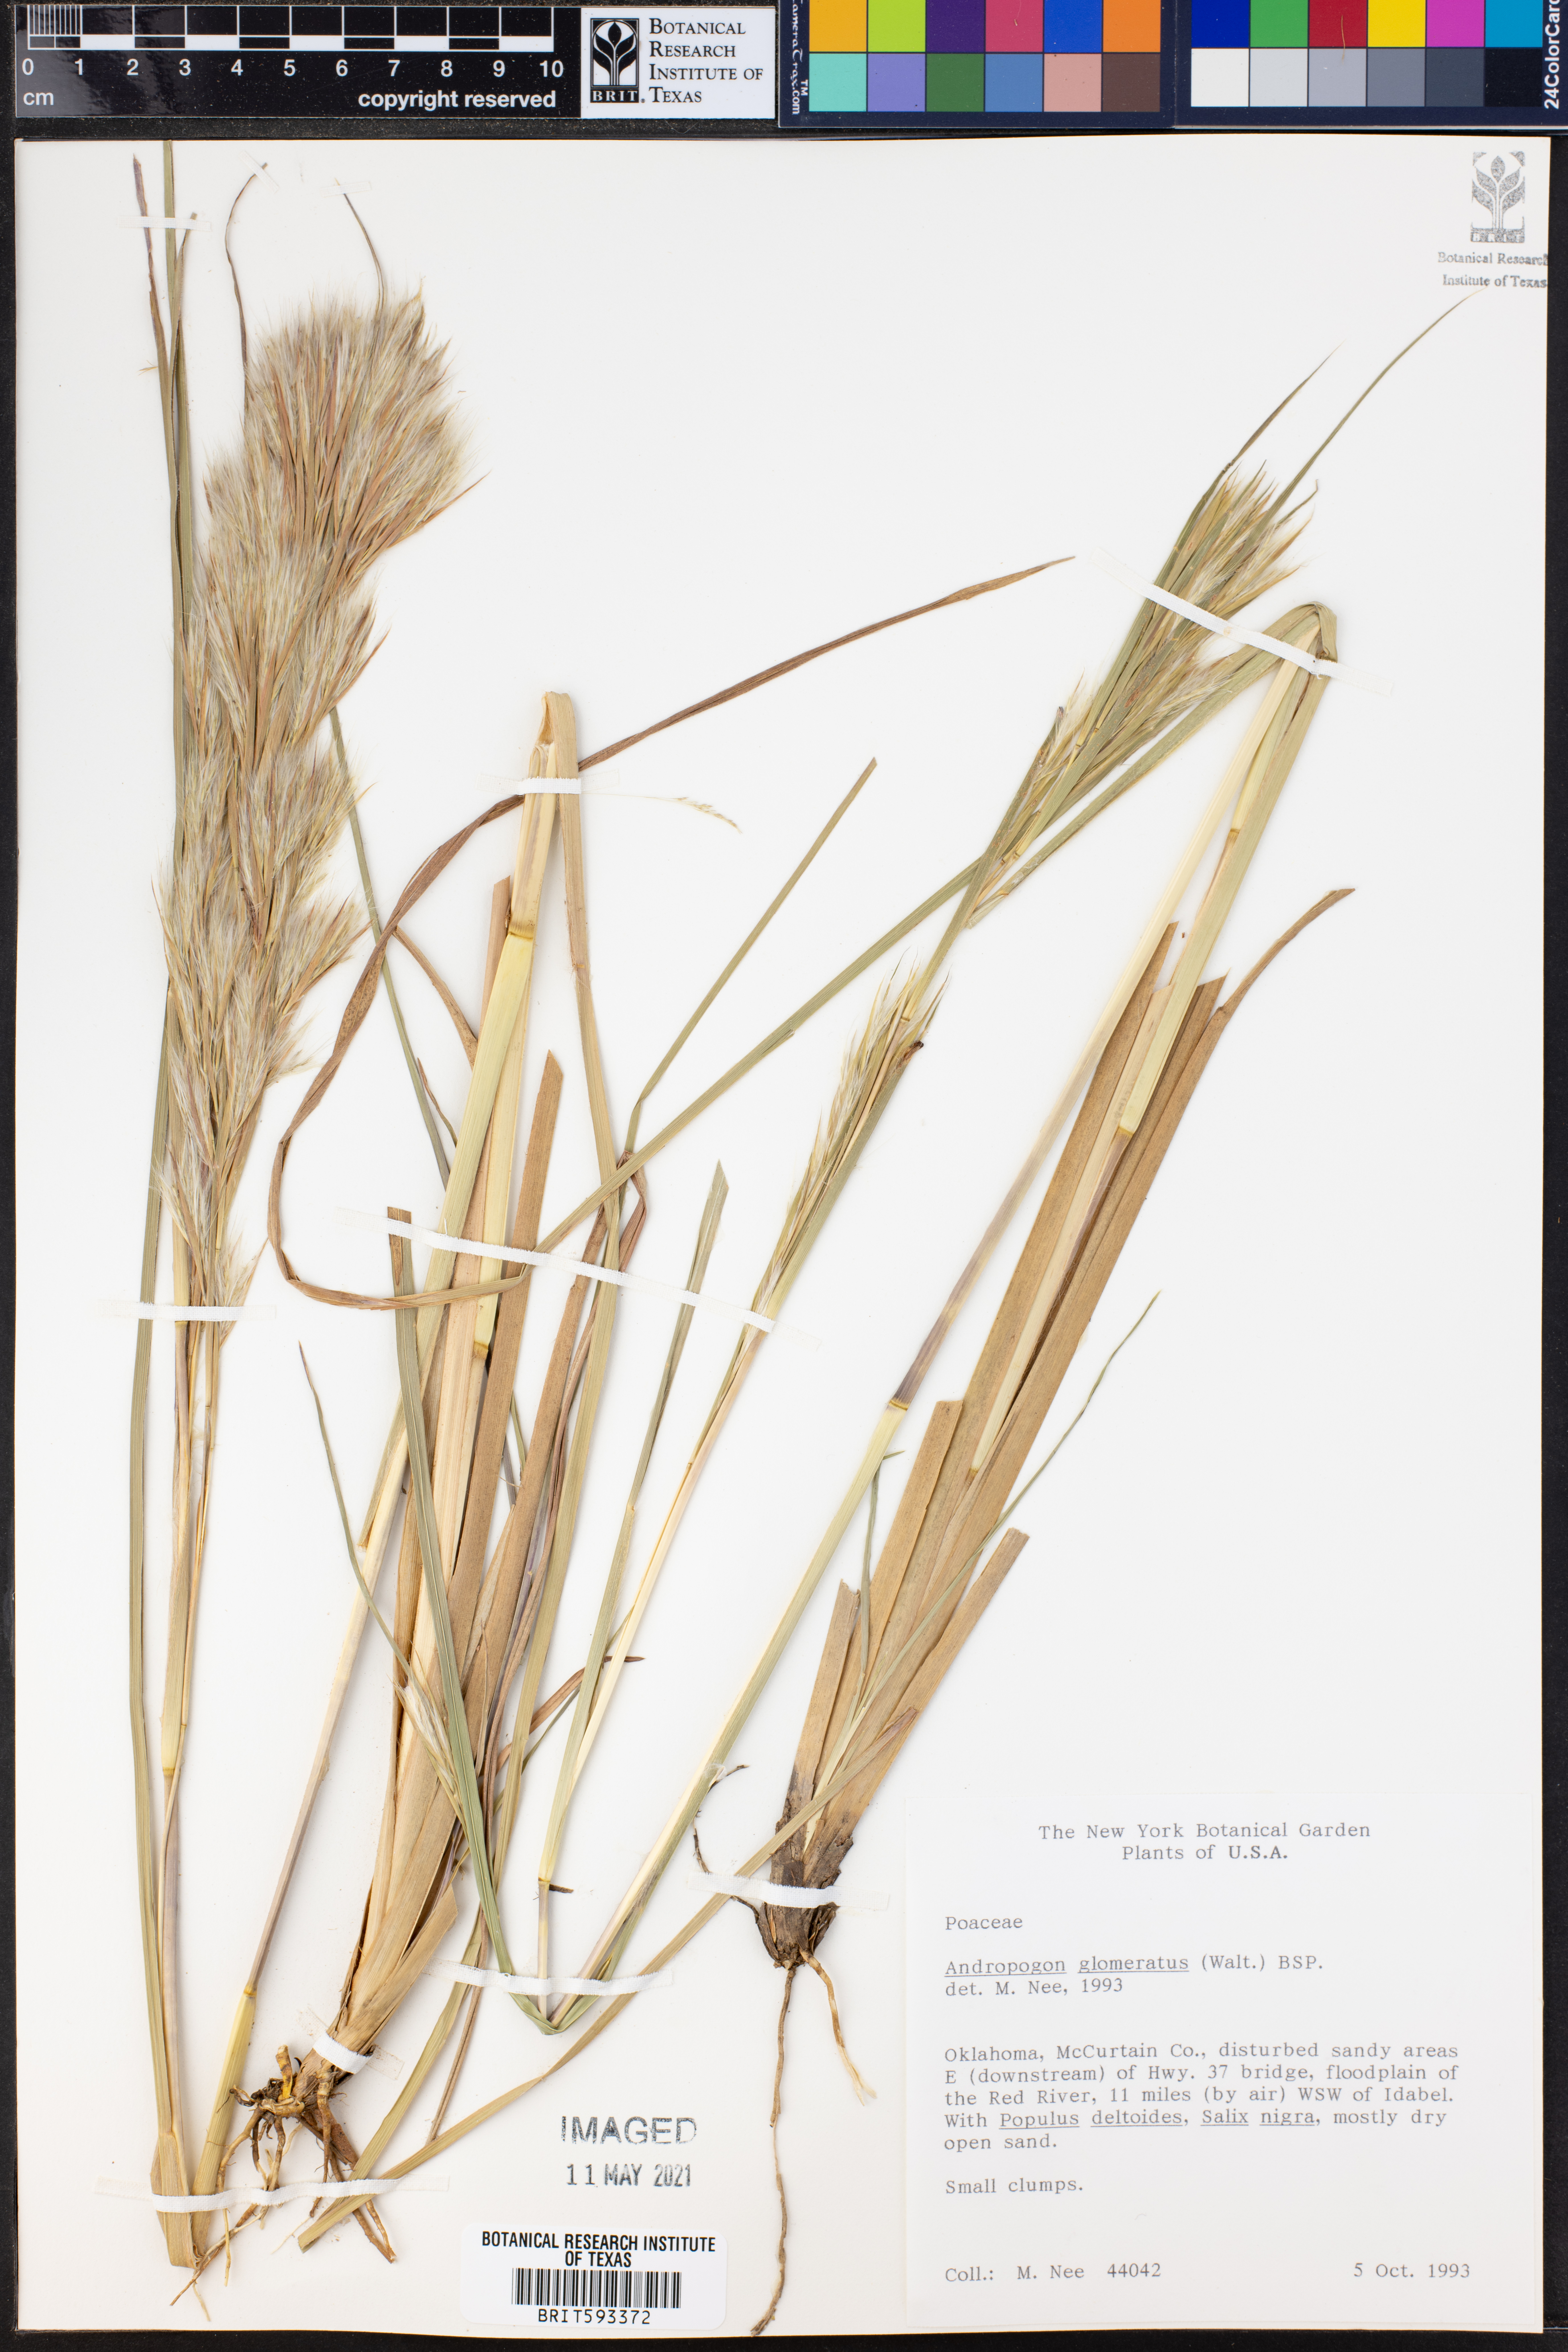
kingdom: Plantae
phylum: Tracheophyta
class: Liliopsida
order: Poales
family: Poaceae
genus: Andropogon
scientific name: Andropogon glomeratus
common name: Bushy beard grass
